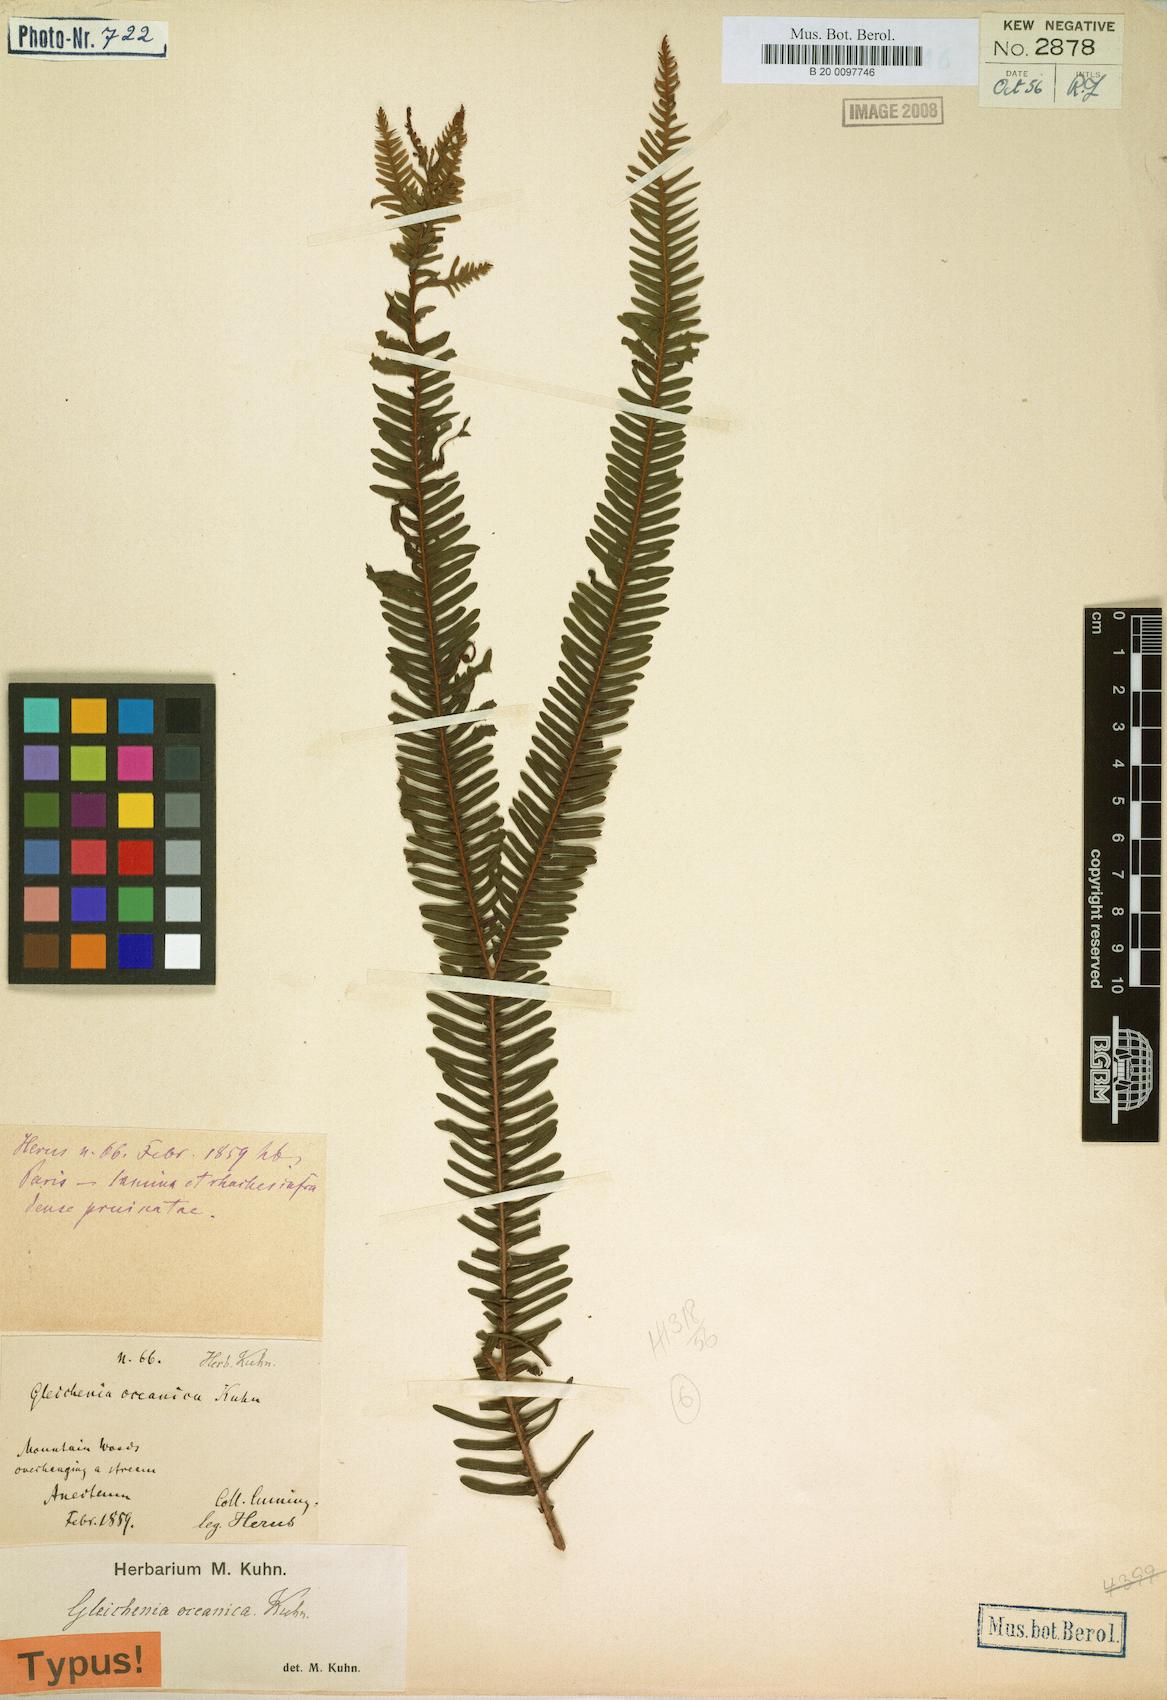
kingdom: Plantae
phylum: Tracheophyta
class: Polypodiopsida
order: Gleicheniales
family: Gleicheniaceae
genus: Sticherus
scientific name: Sticherus oceanicus
